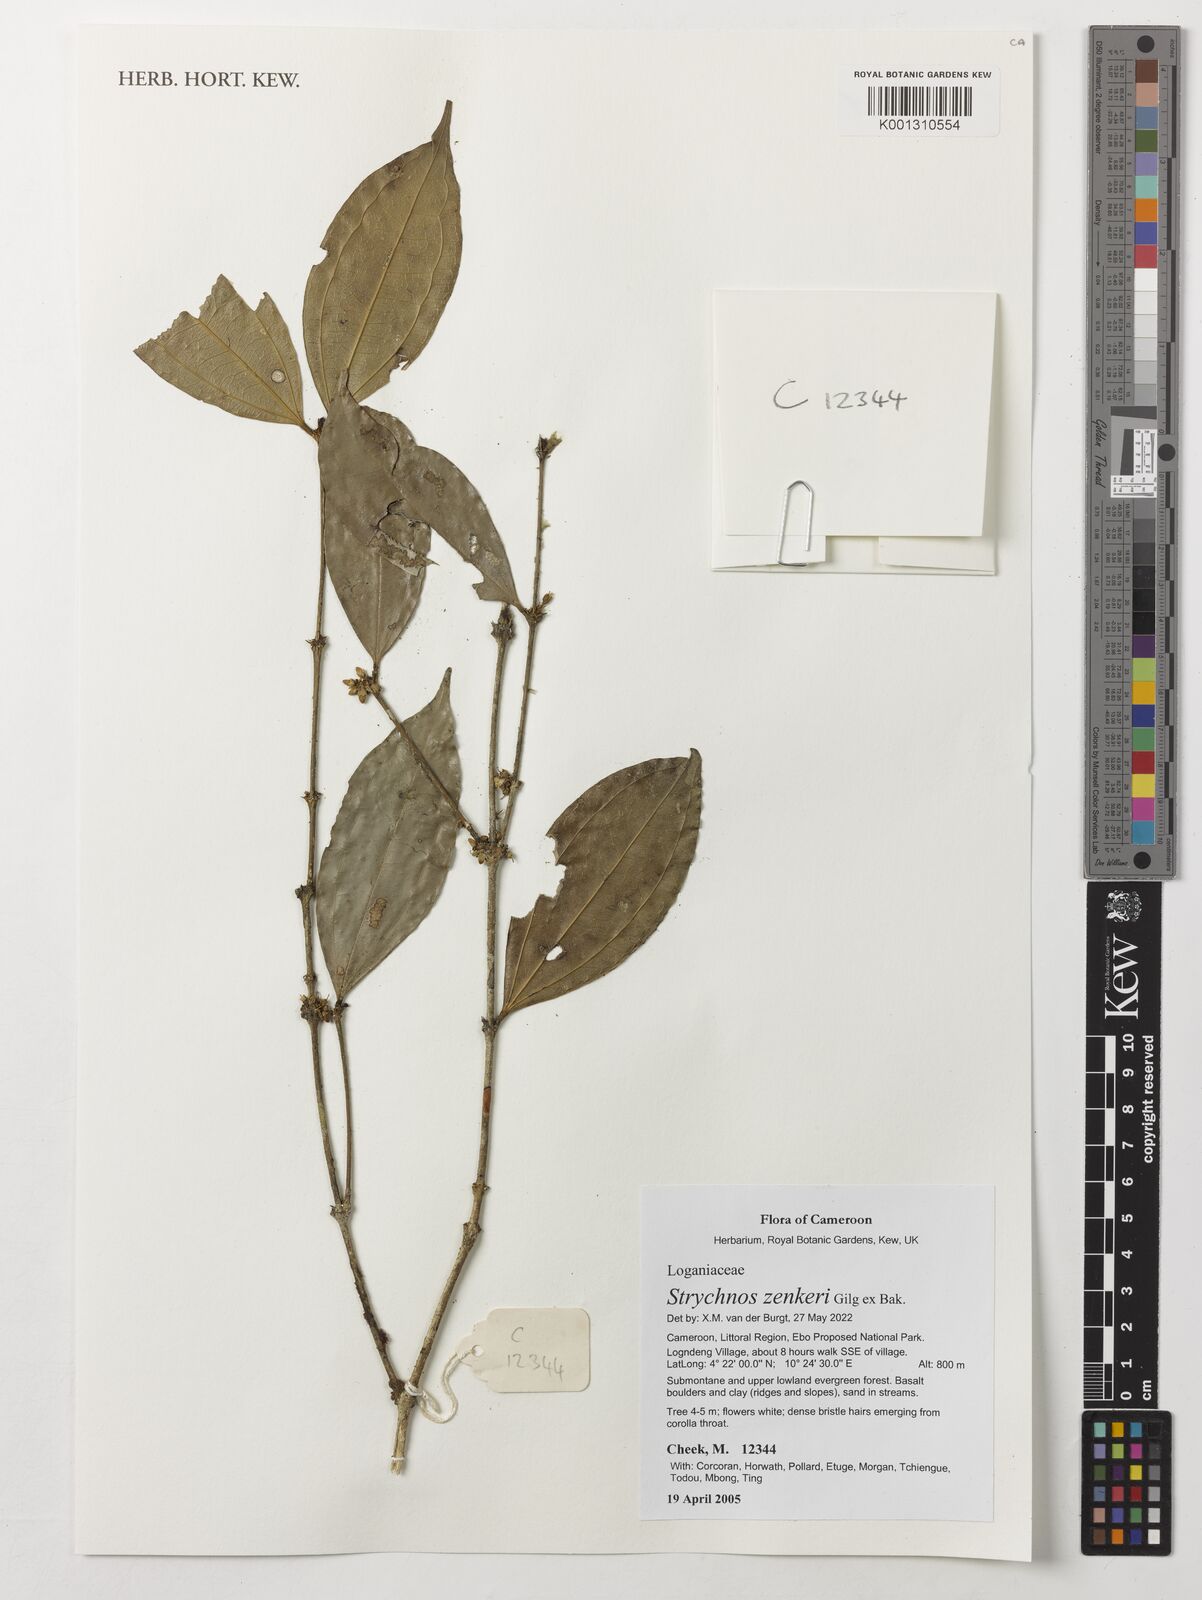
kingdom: Plantae
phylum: Tracheophyta
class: Magnoliopsida
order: Gentianales
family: Loganiaceae
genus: Strychnos
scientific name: Strychnos zenkeri
